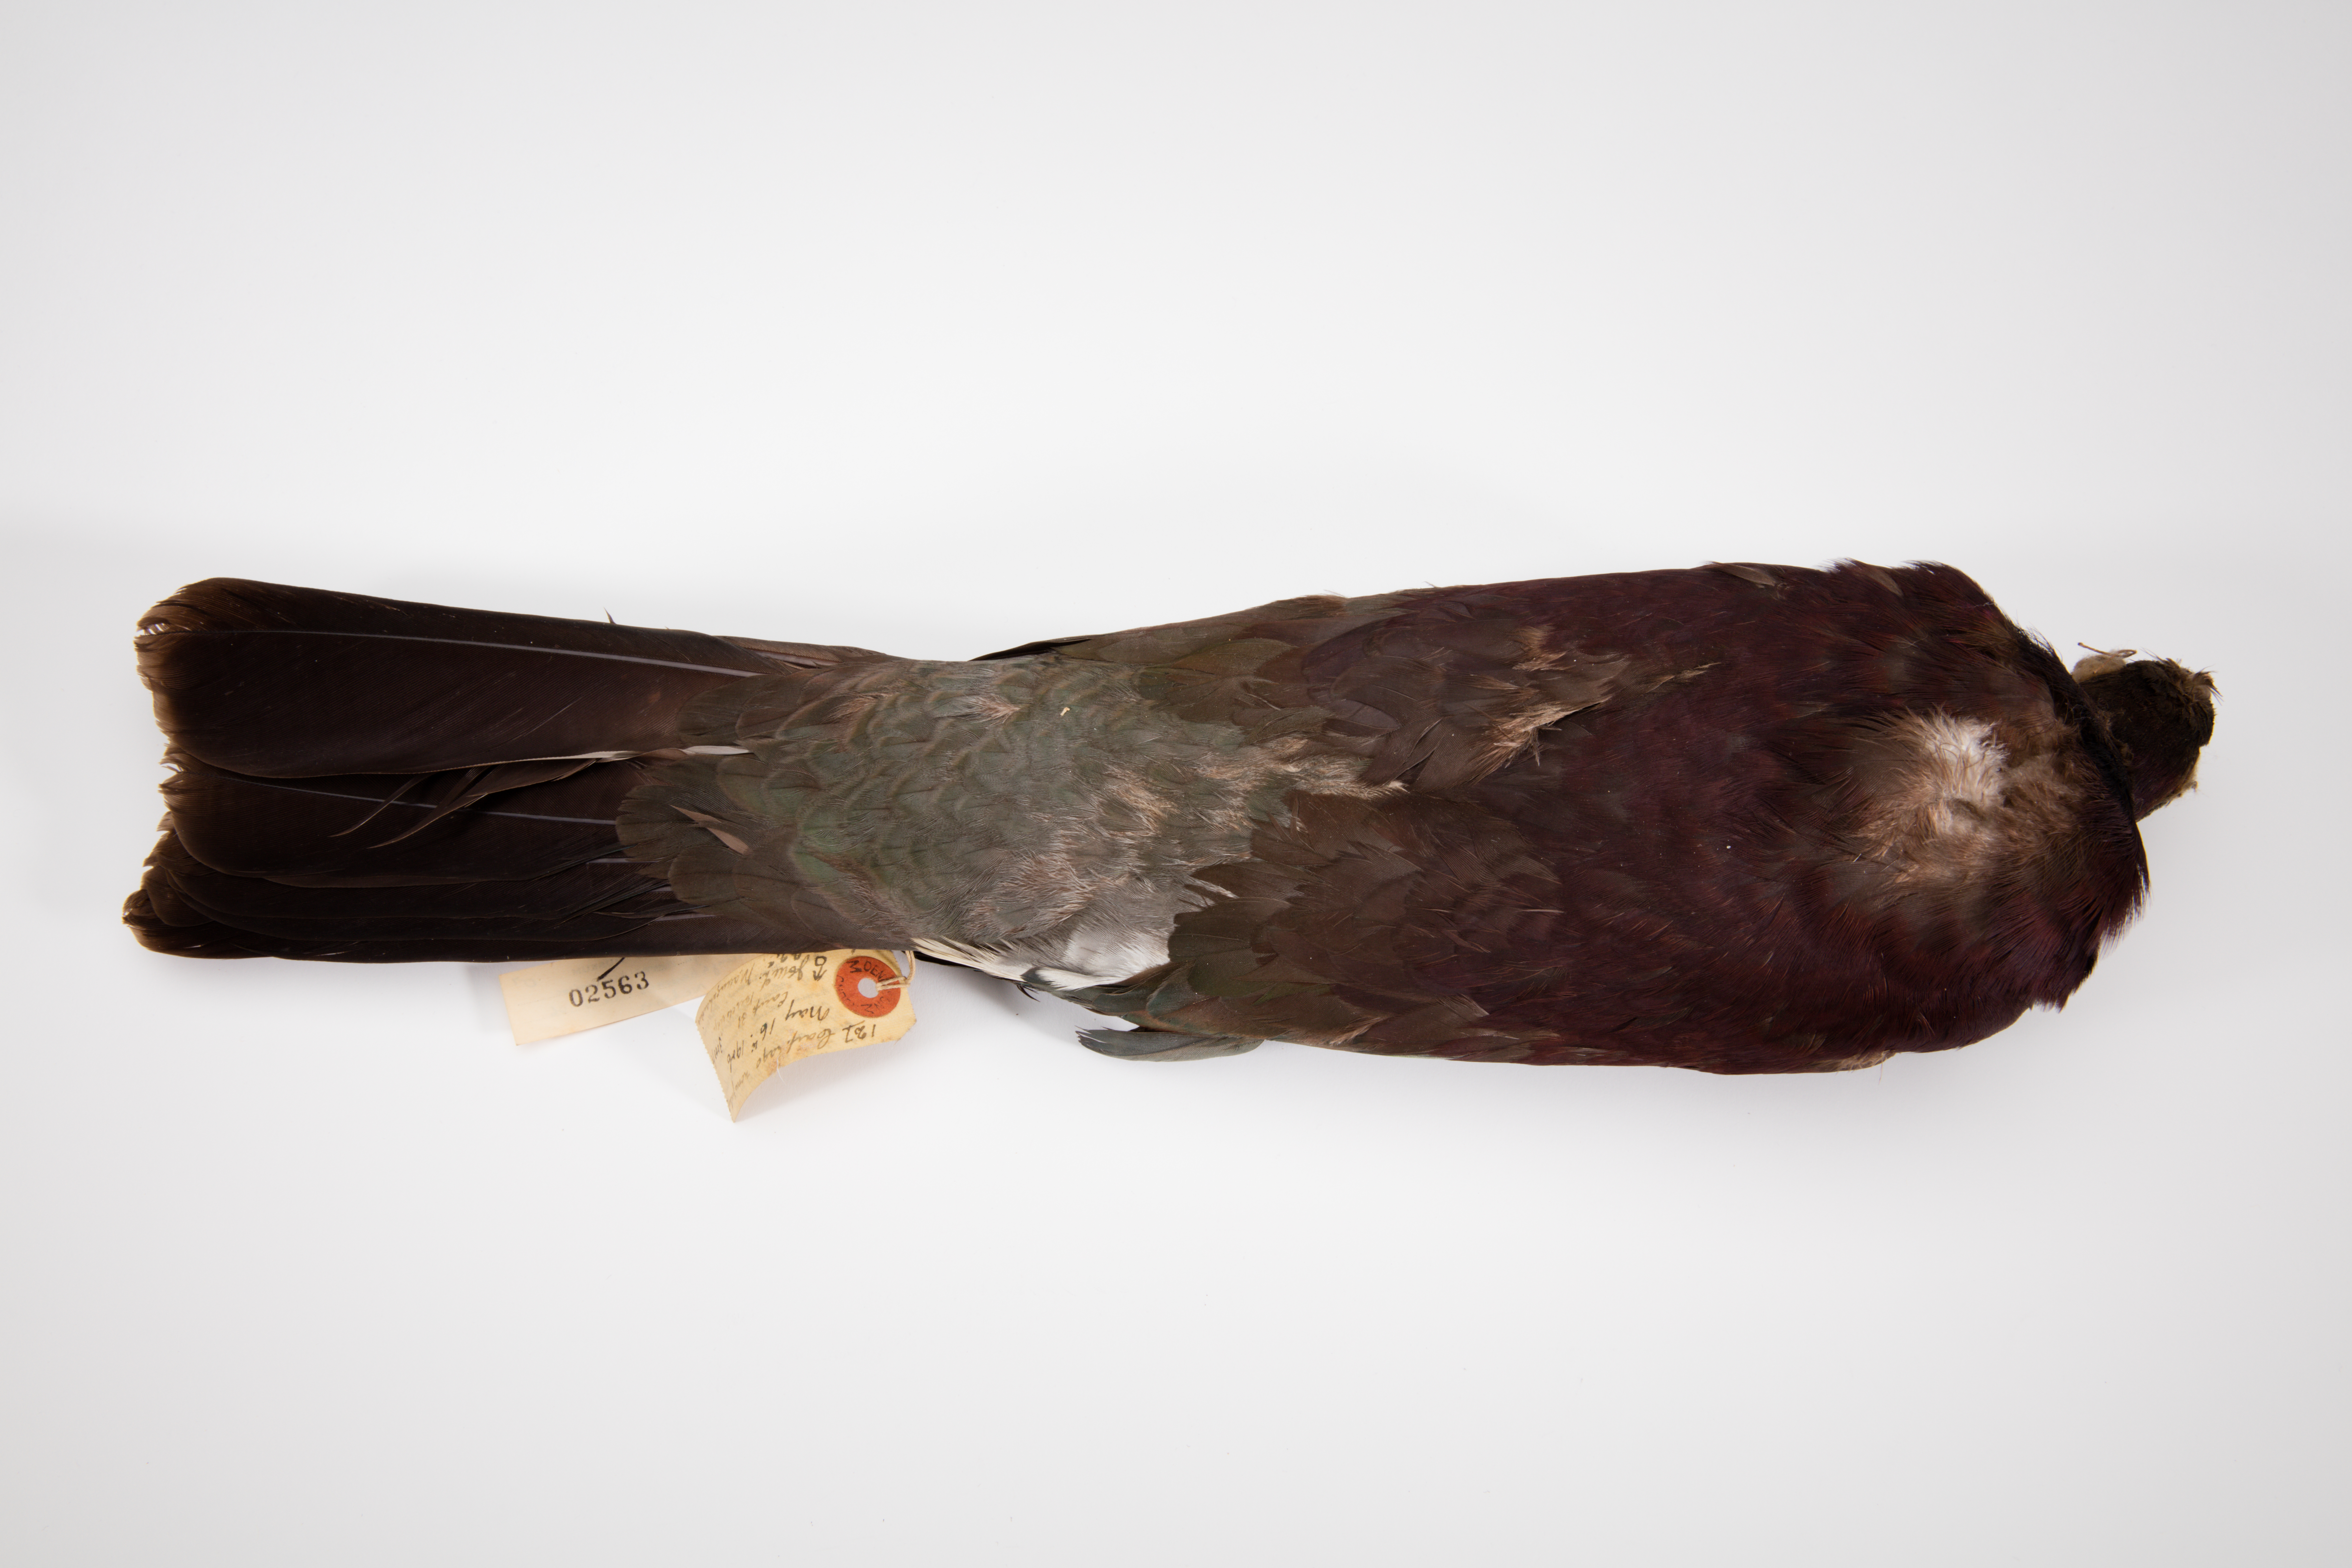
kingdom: Animalia
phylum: Chordata
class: Aves
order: Columbiformes
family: Columbidae
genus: Hemiphaga
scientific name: Hemiphaga novaeseelandiae
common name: New zealand pigeon
